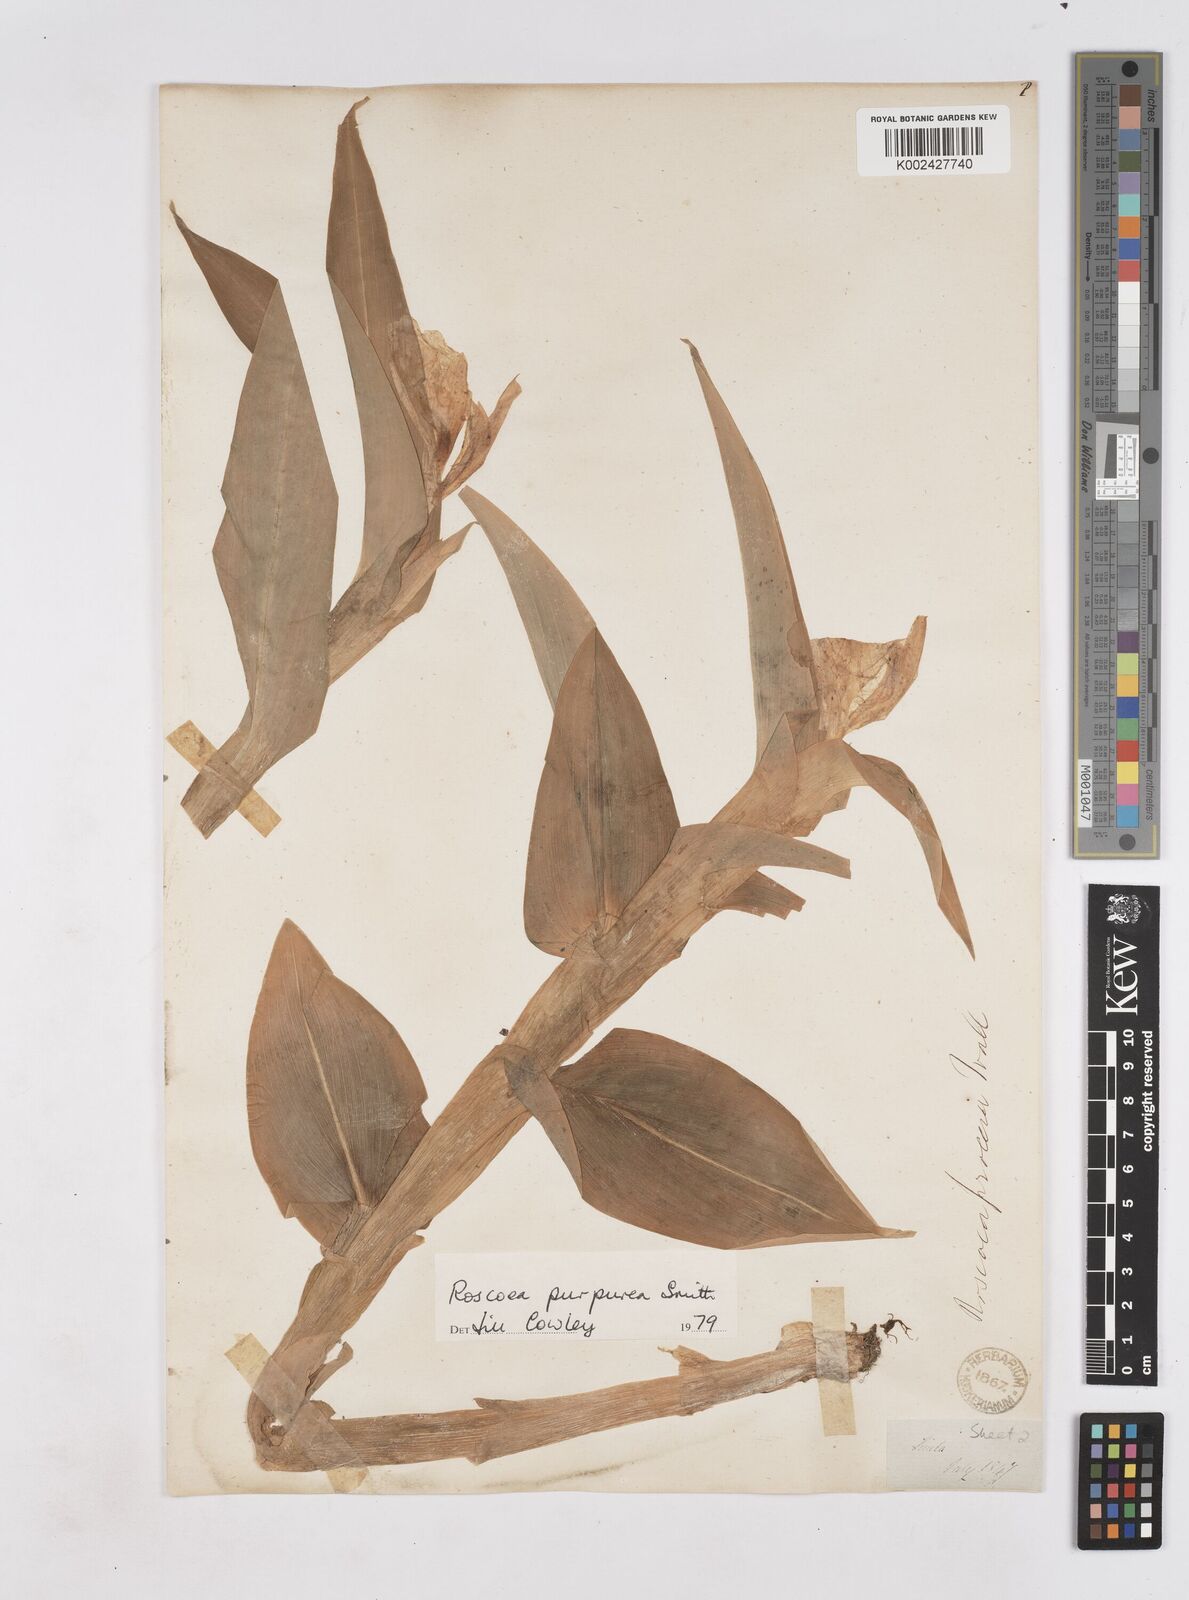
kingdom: Plantae
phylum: Tracheophyta
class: Liliopsida
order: Zingiberales
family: Zingiberaceae
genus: Roscoea
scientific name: Roscoea purpurea
